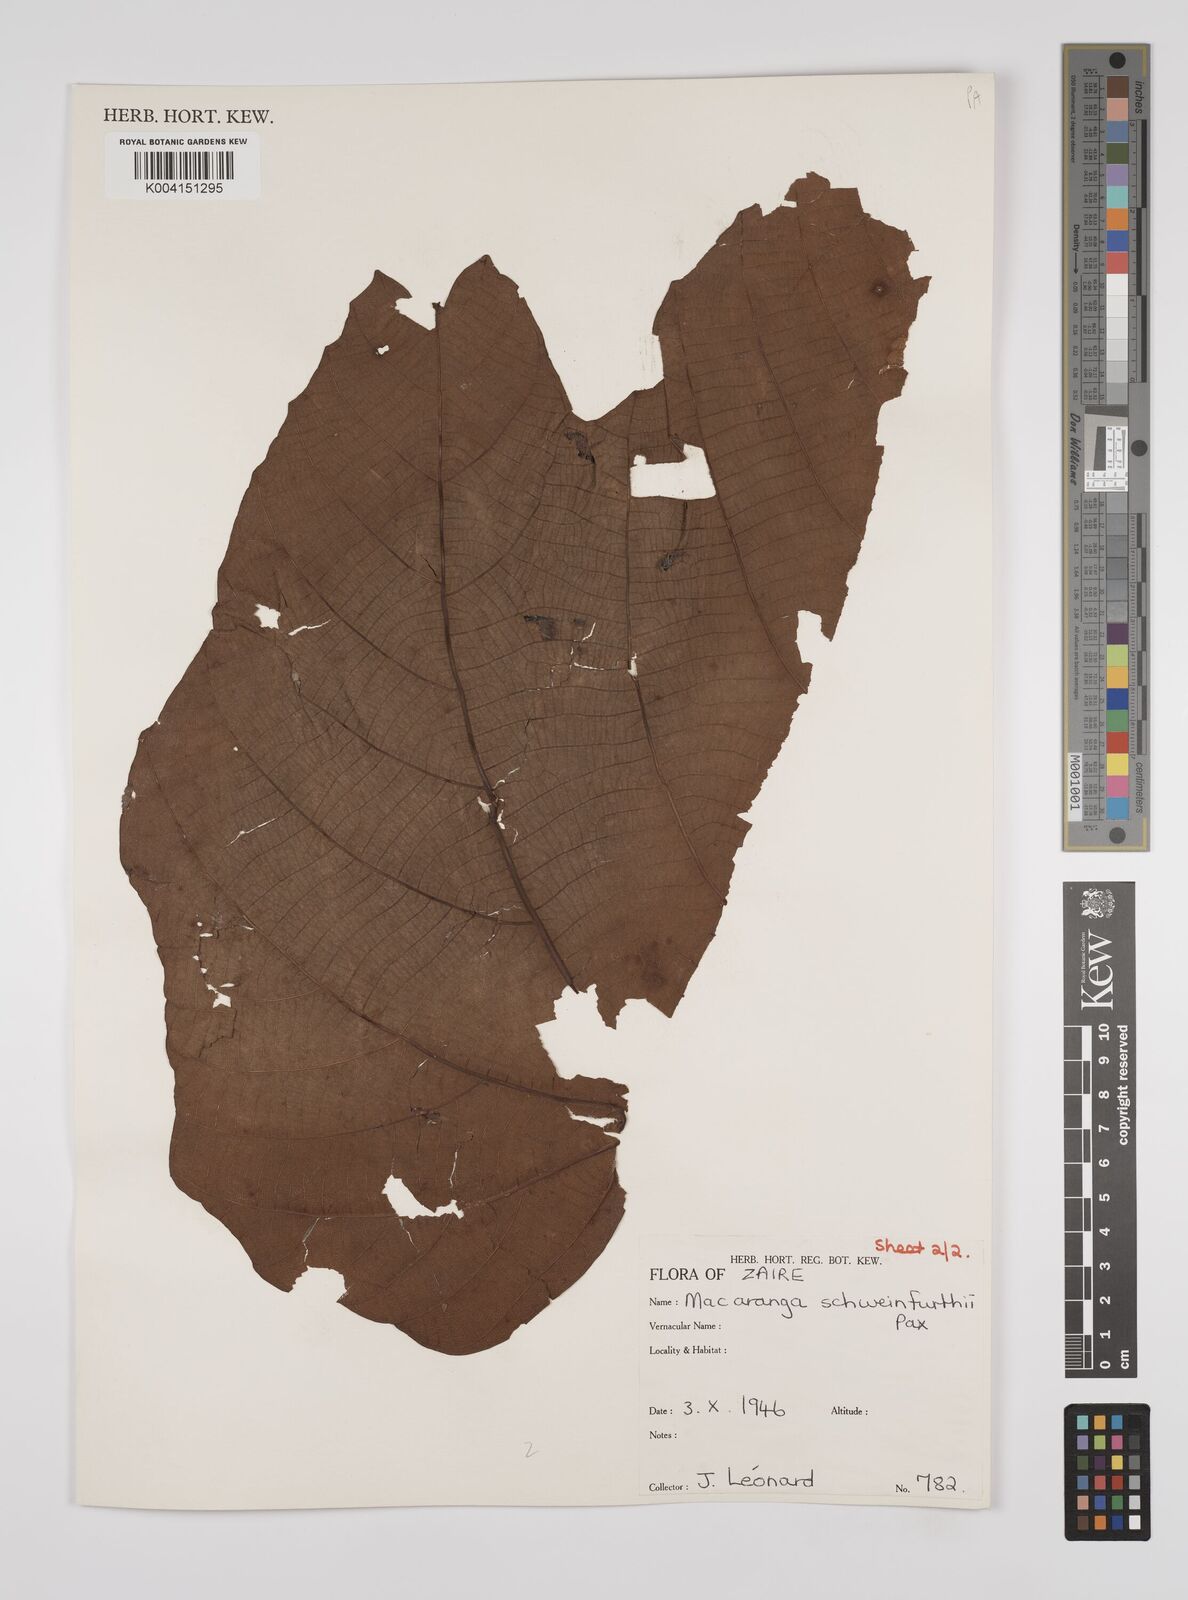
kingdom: Plantae
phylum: Tracheophyta
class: Magnoliopsida
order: Malpighiales
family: Euphorbiaceae
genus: Macaranga
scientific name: Macaranga schweinfurthii
